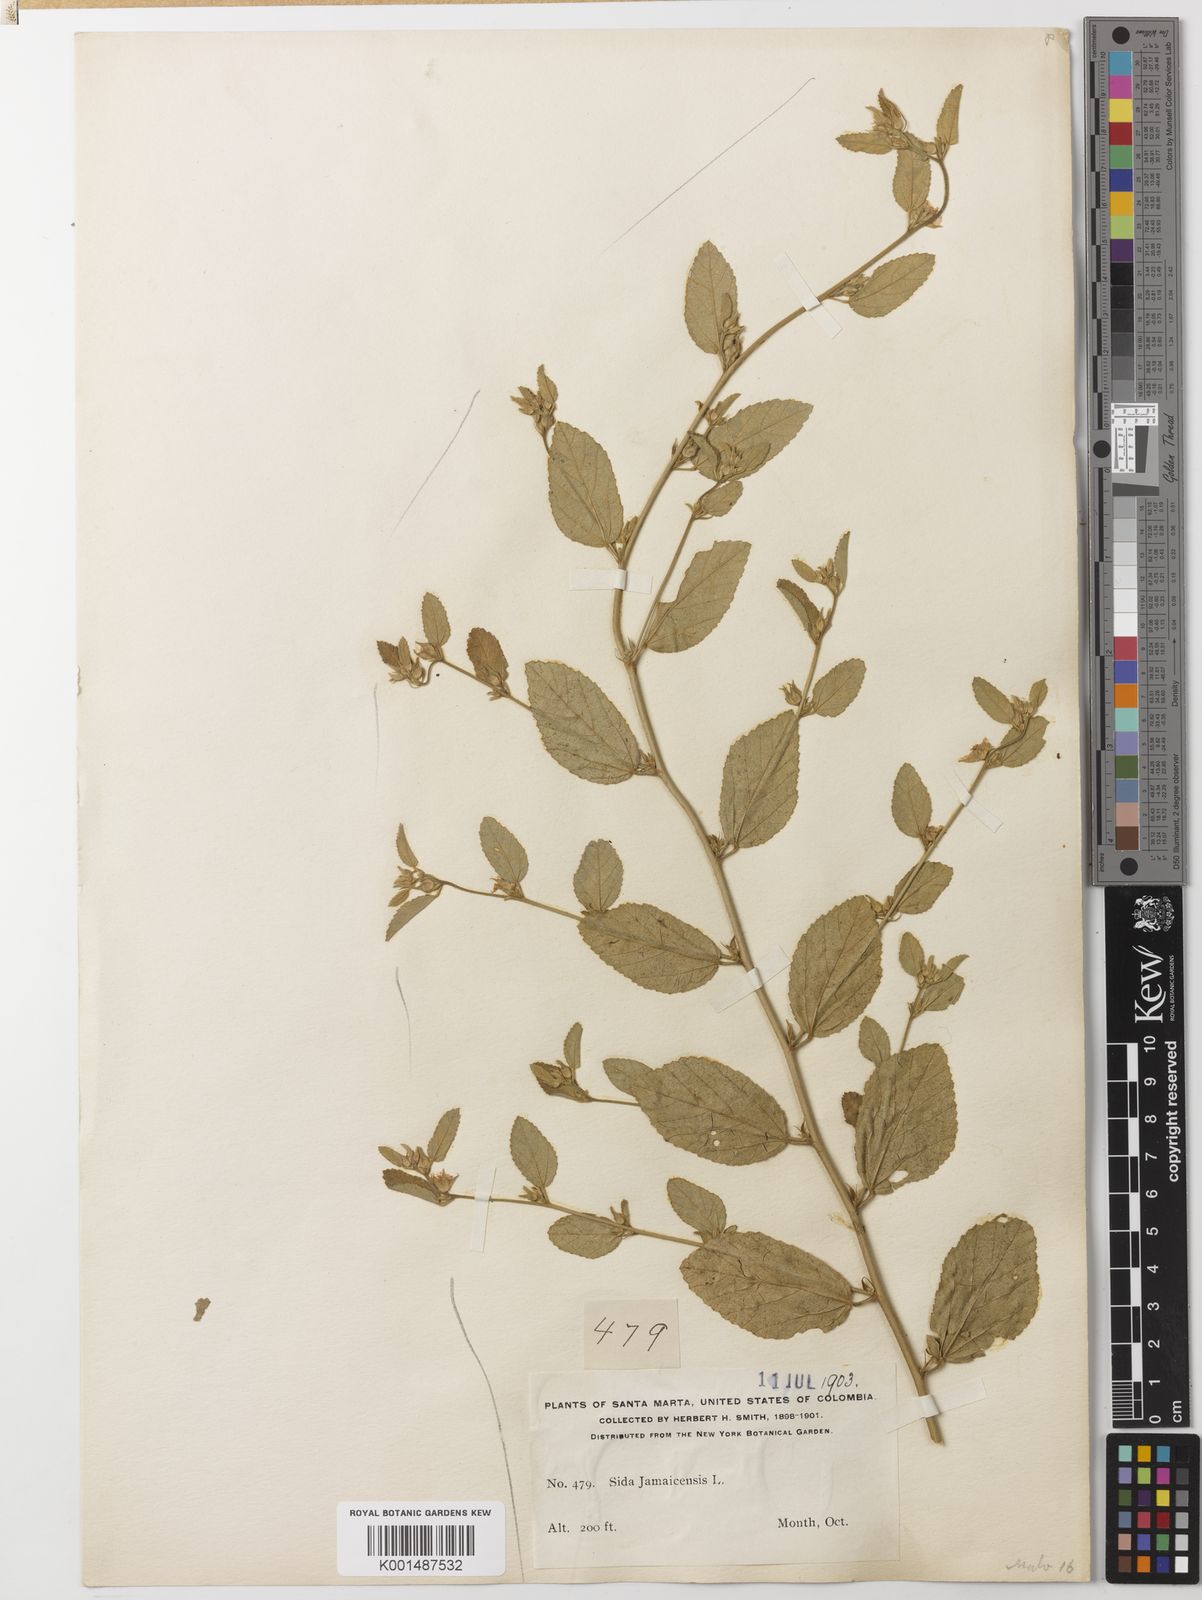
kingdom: Plantae
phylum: Tracheophyta
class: Magnoliopsida
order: Malvales
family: Malvaceae
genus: Sida
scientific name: Sida jamaicensis
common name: Jamaican fanpetals
